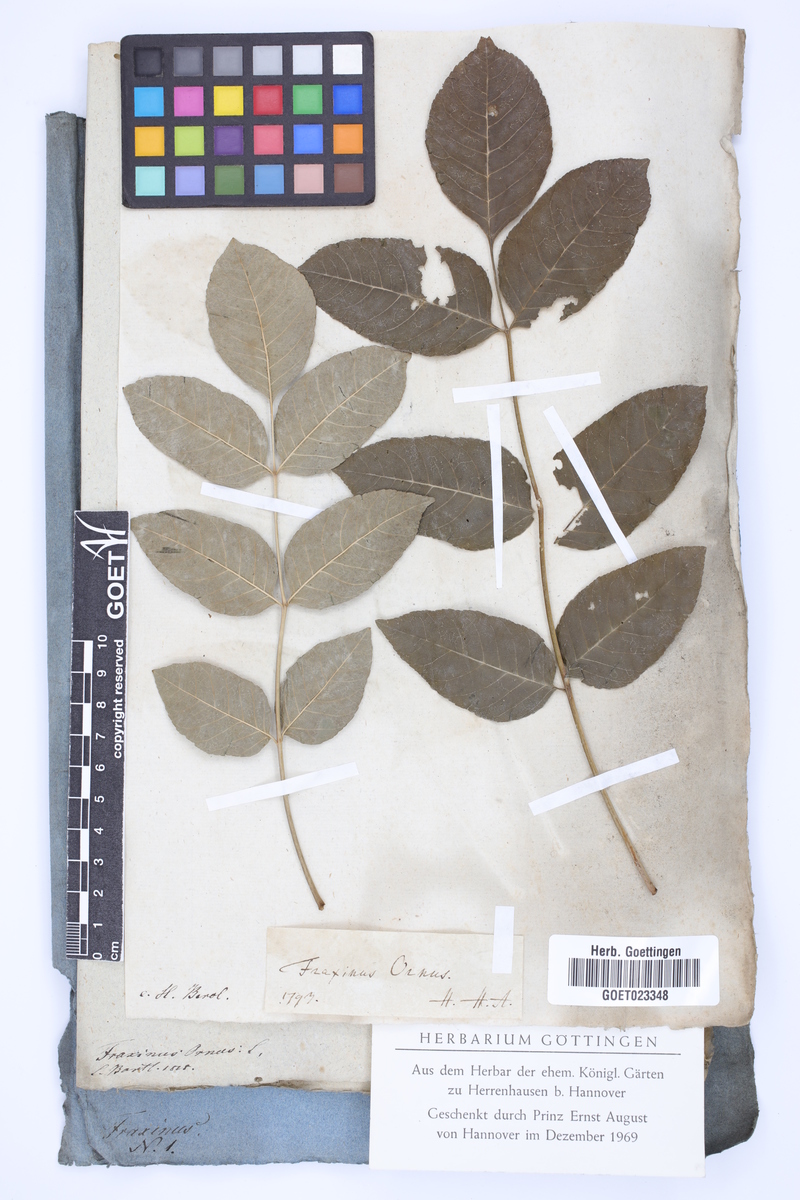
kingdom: Plantae
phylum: Tracheophyta
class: Magnoliopsida
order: Lamiales
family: Oleaceae
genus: Fraxinus
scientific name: Fraxinus ornus
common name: Manna ash
